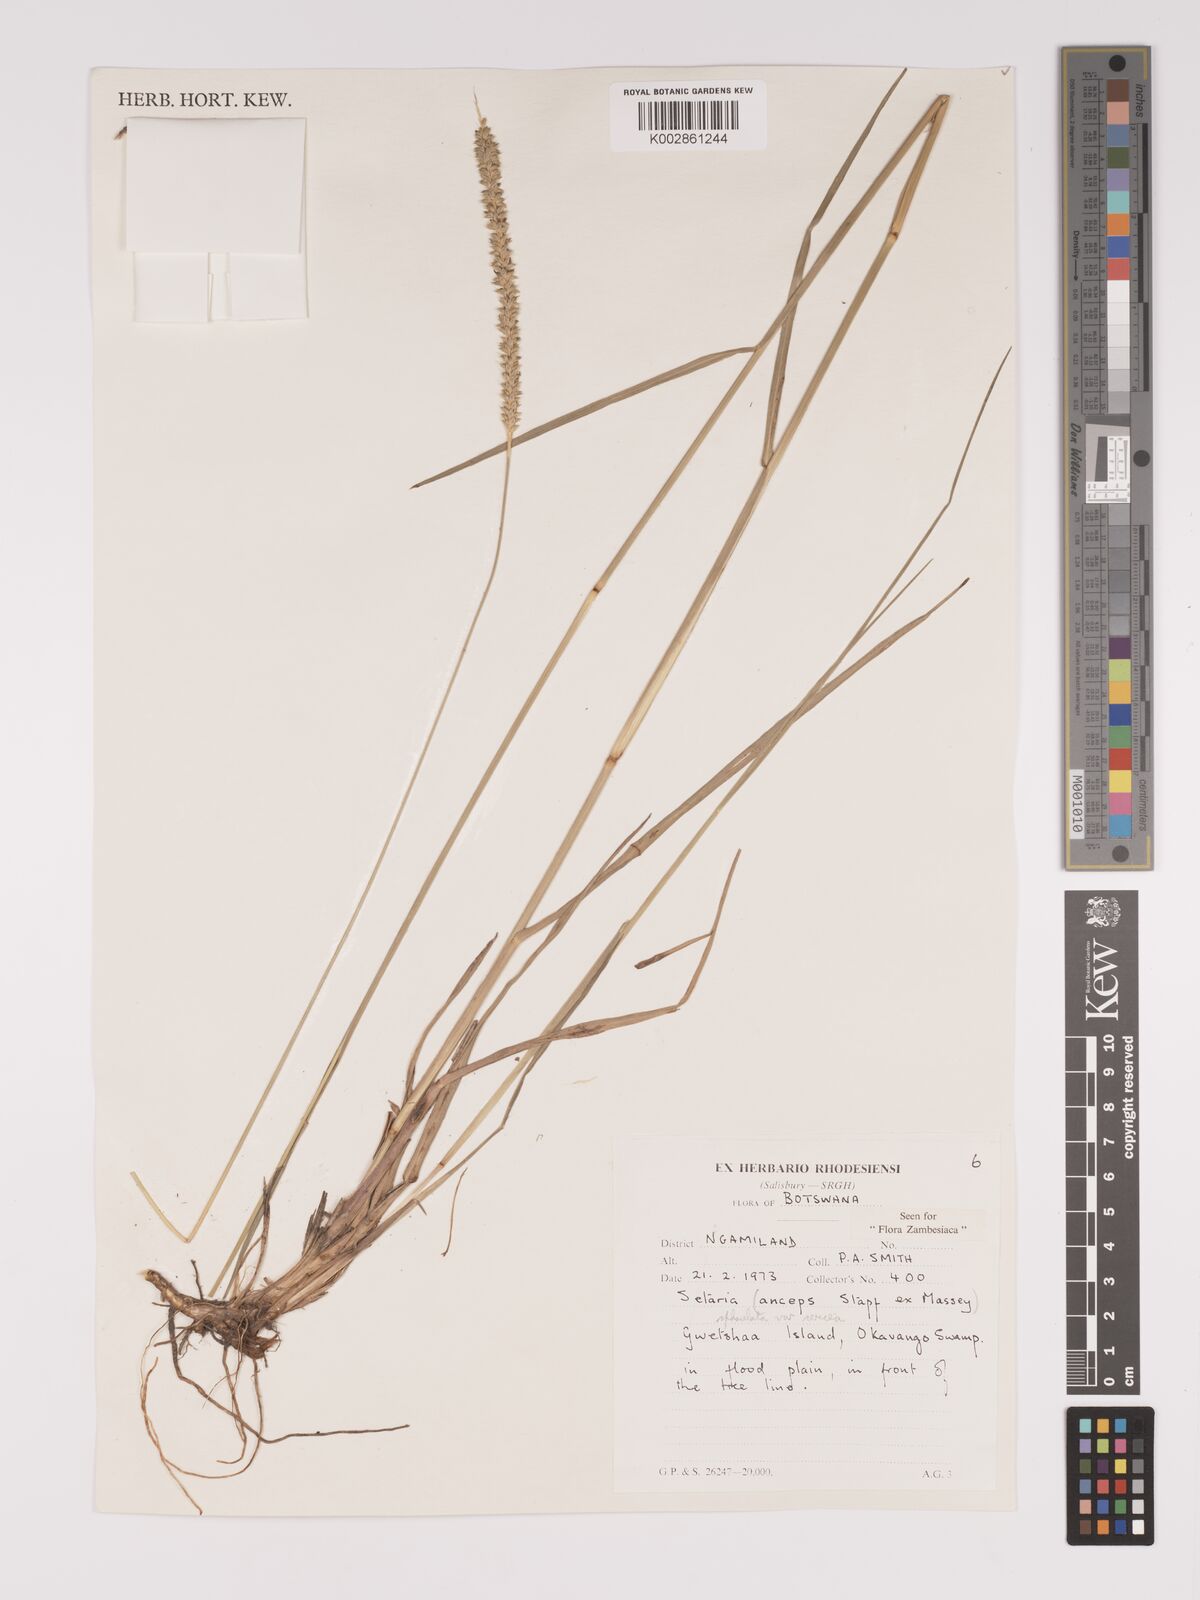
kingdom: Plantae
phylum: Tracheophyta
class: Liliopsida
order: Poales
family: Poaceae
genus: Setaria
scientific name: Setaria sphacelata
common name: African bristlegrass
